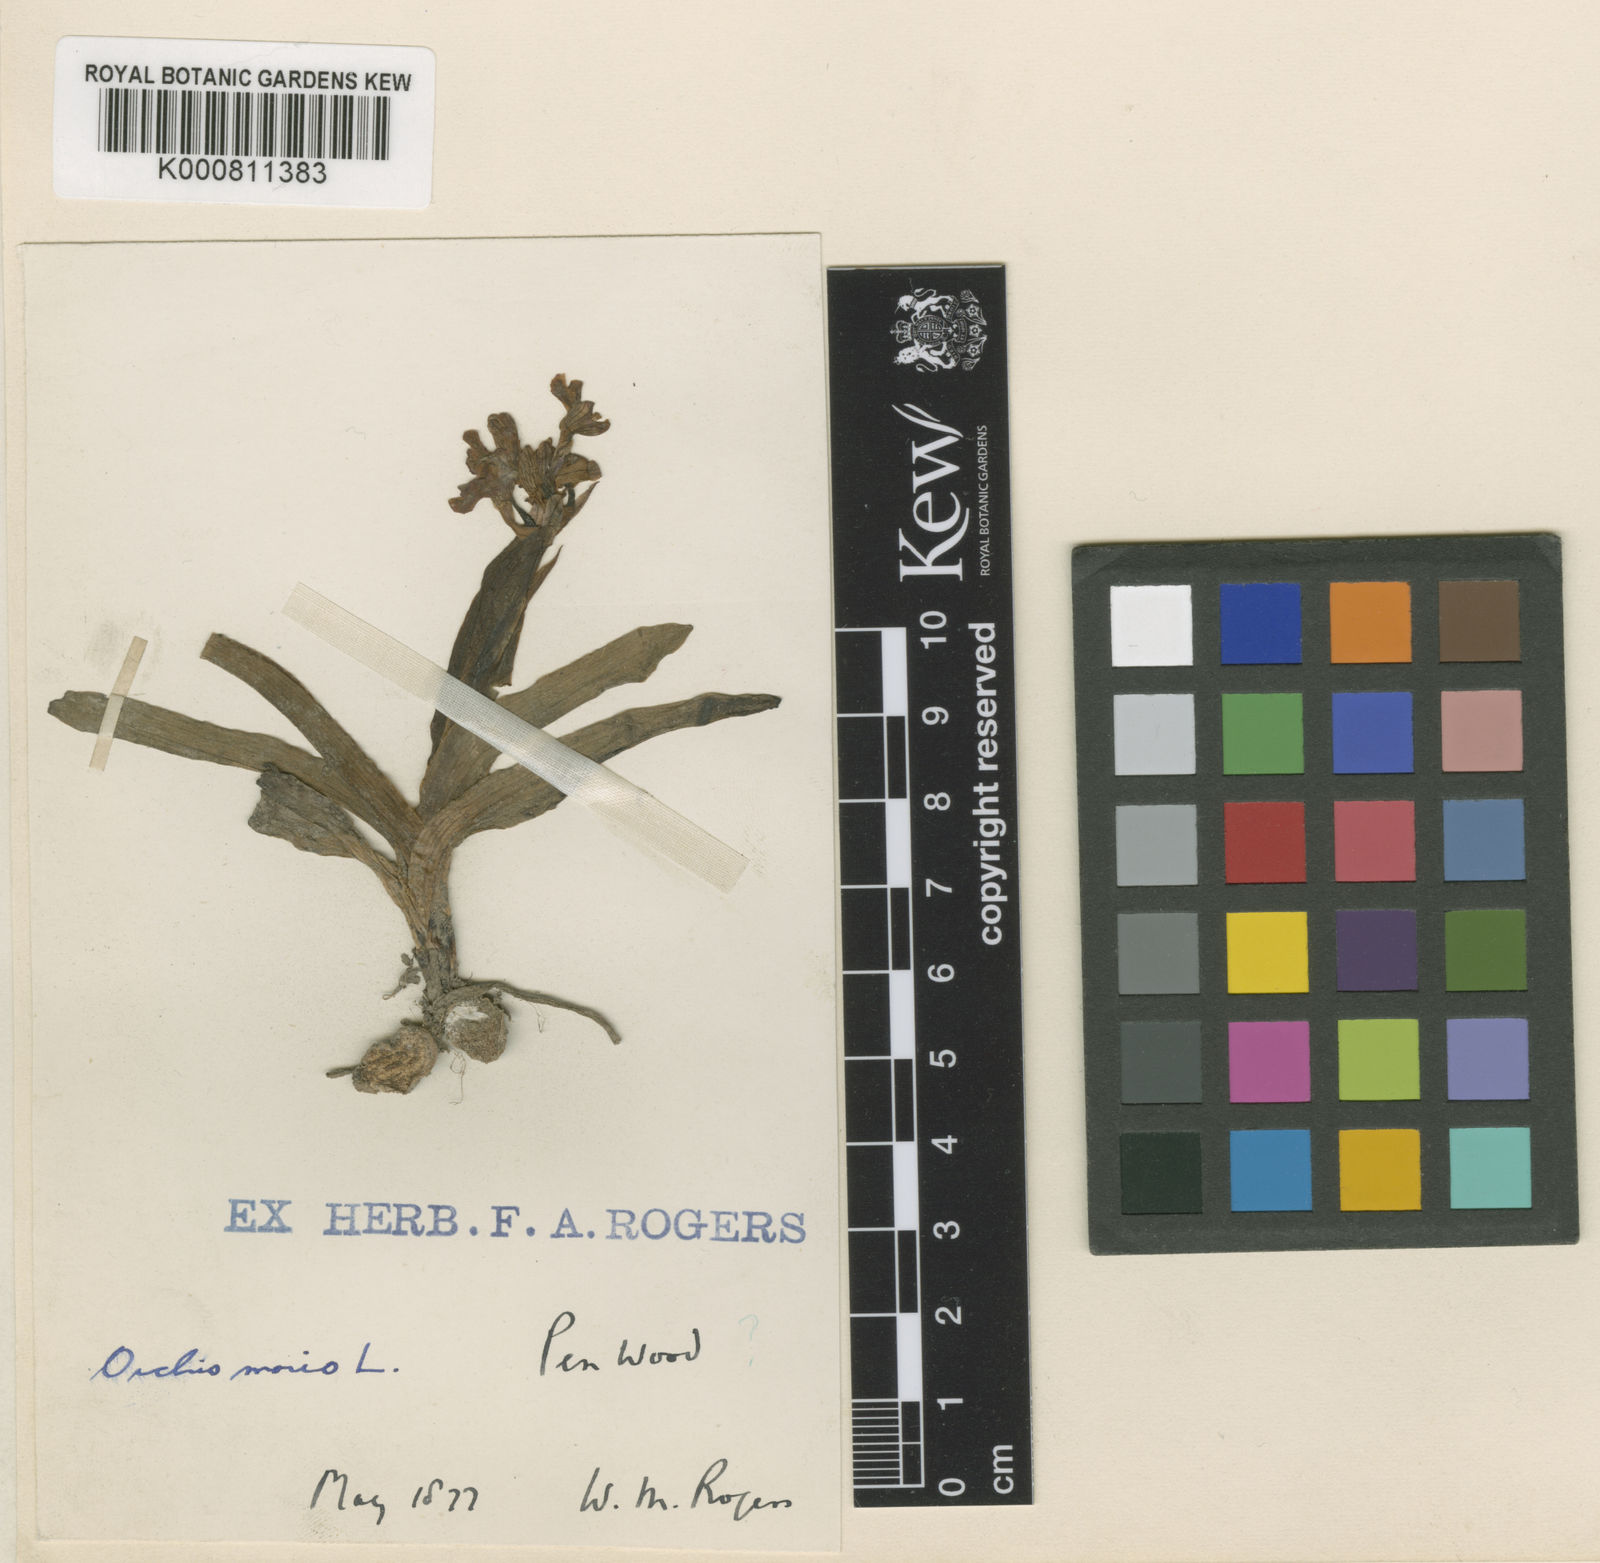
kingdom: Plantae
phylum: Tracheophyta
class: Liliopsida
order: Asparagales
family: Orchidaceae
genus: Anacamptis
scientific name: Anacamptis morio
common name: Green-winged orchid
